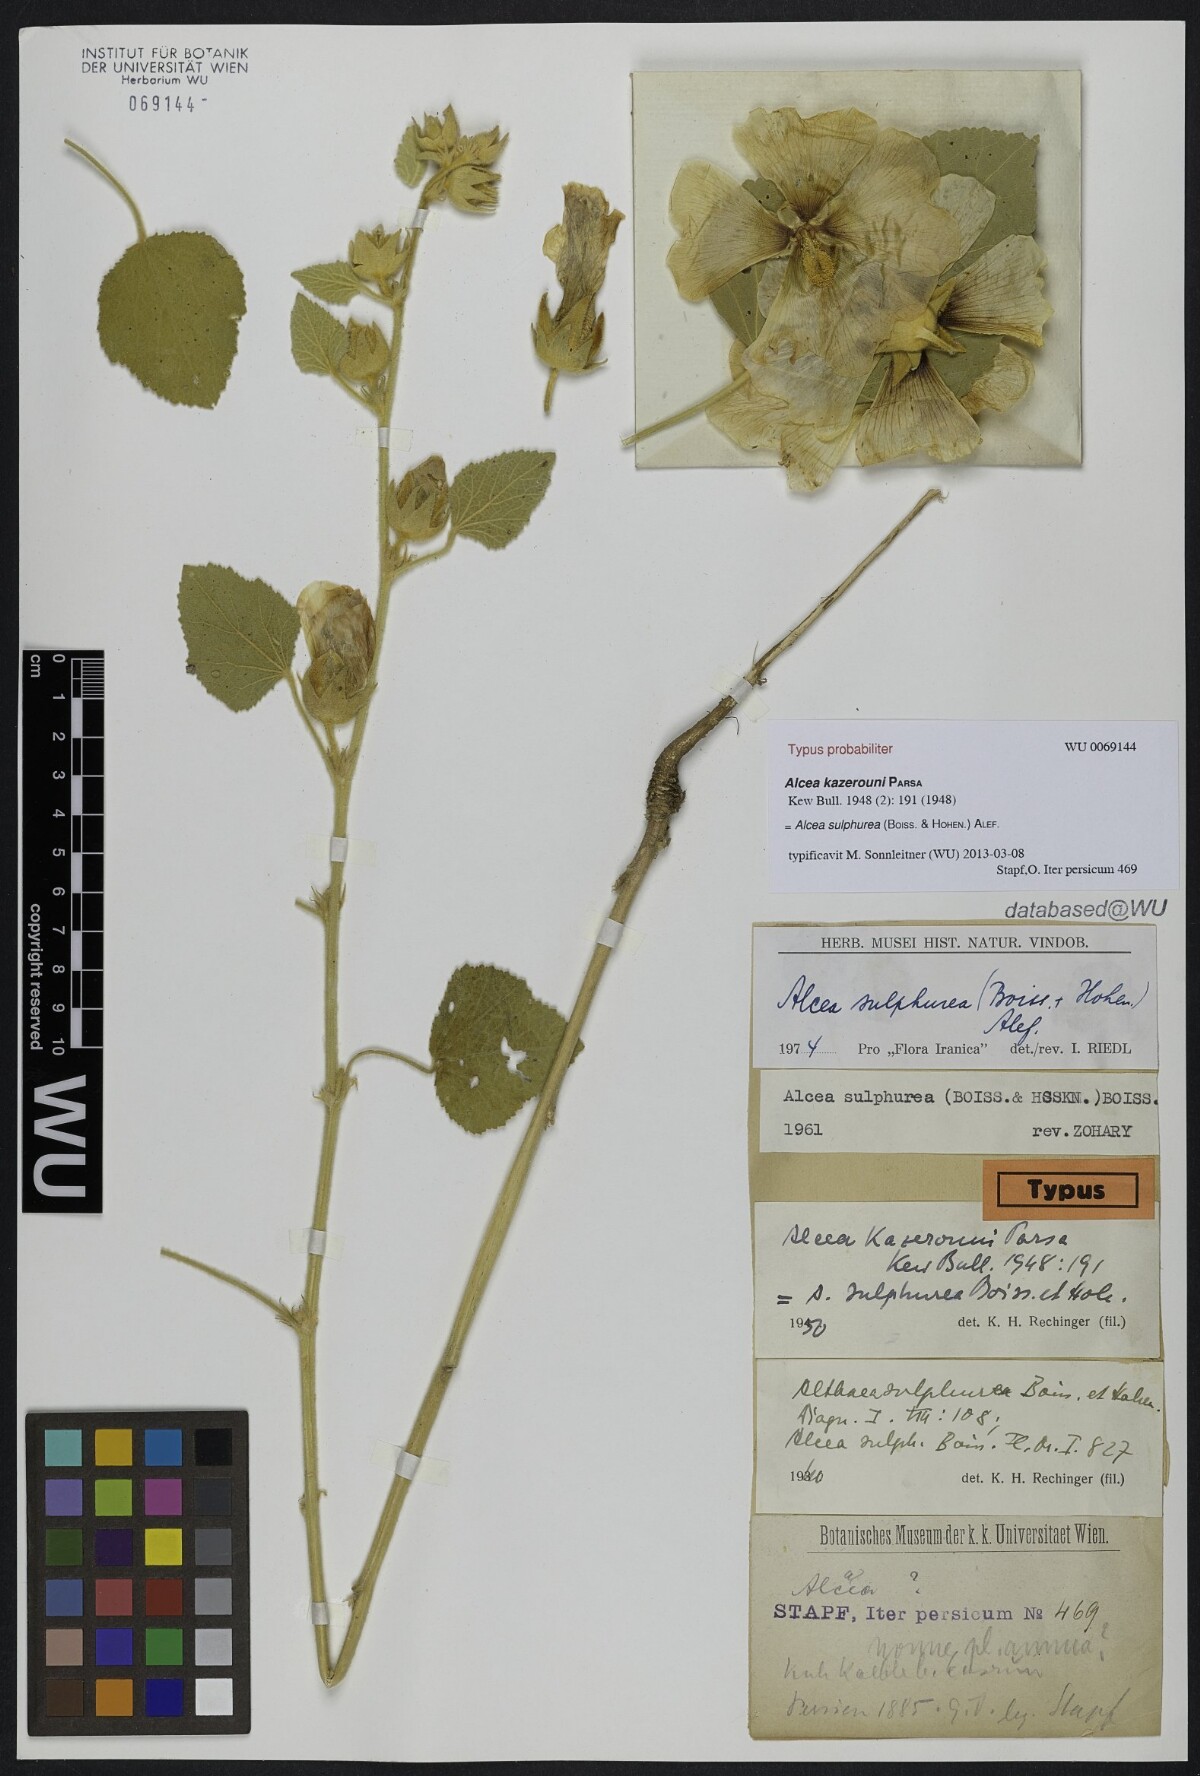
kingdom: Plantae
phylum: Tracheophyta
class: Magnoliopsida
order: Malvales
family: Malvaceae
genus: Alcea
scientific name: Alcea sulphurea
